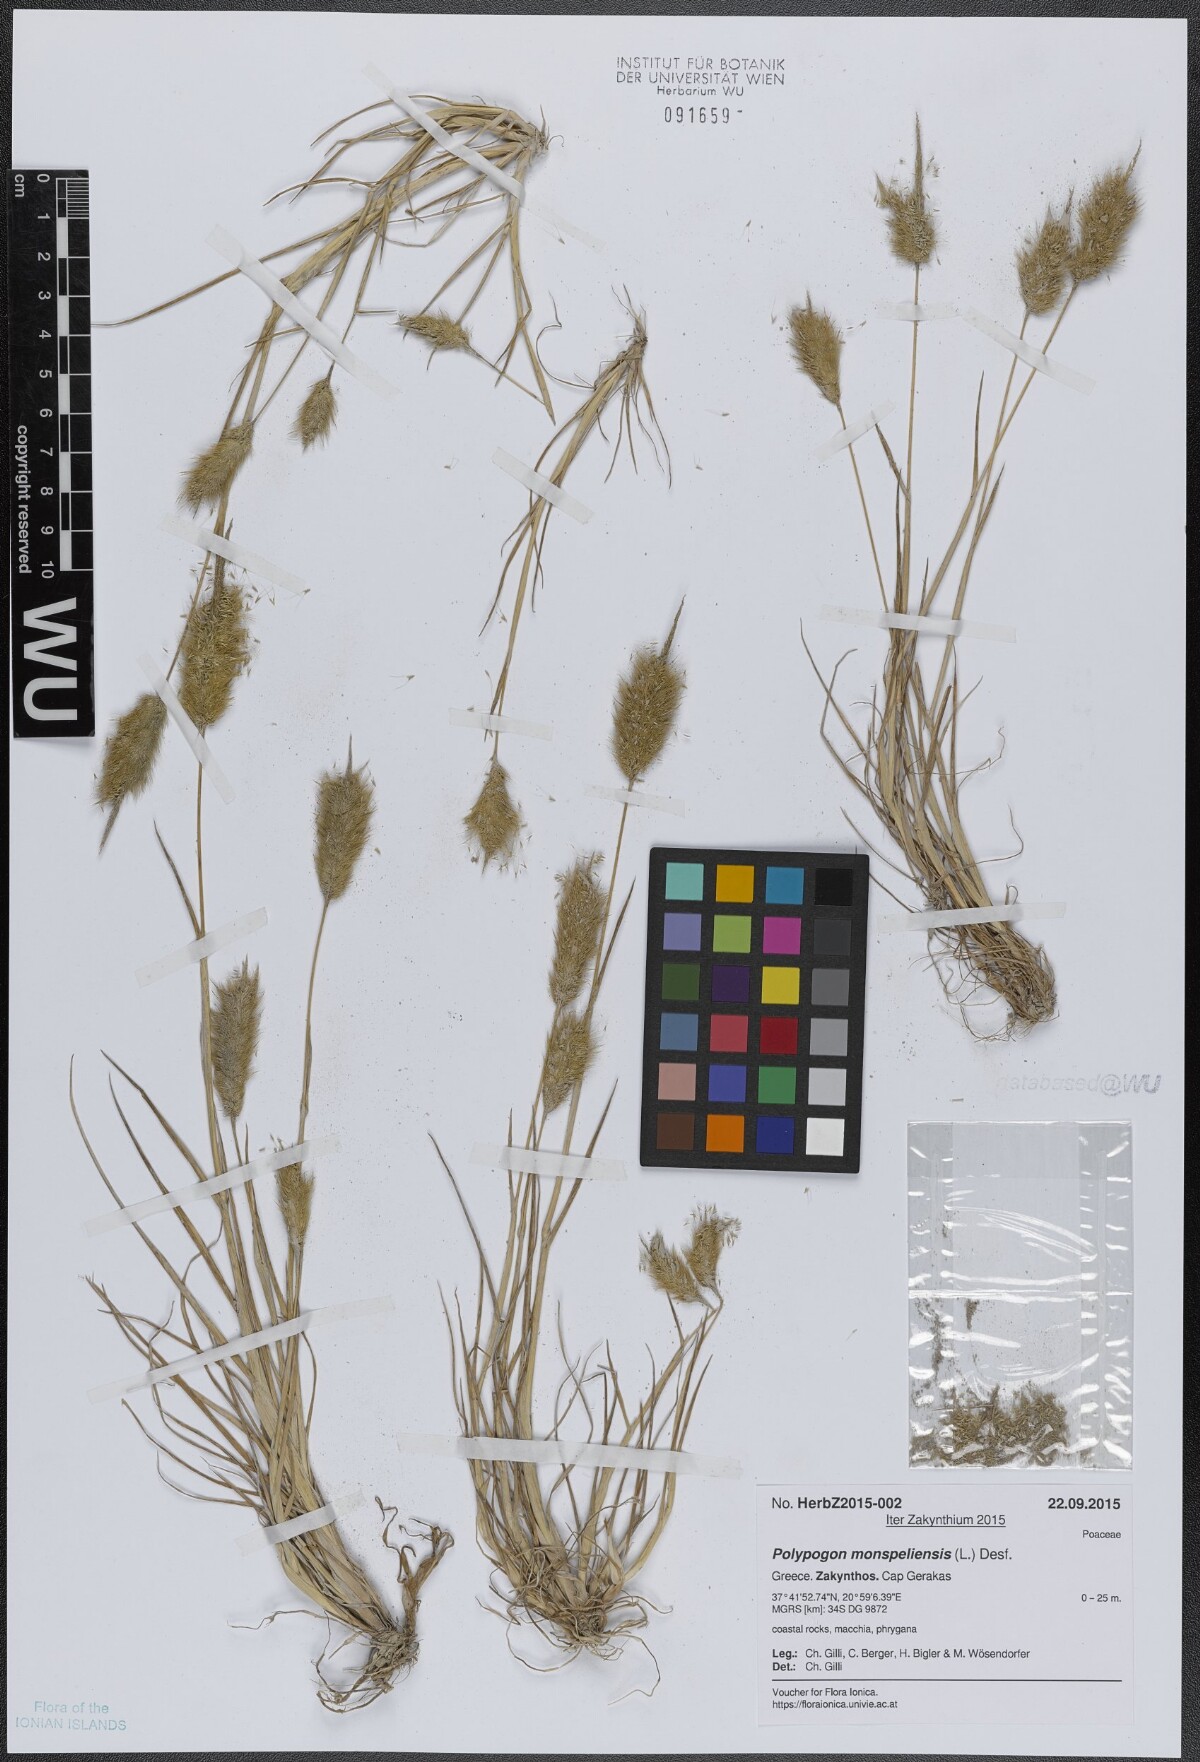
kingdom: Plantae
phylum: Tracheophyta
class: Liliopsida
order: Poales
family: Poaceae
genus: Polypogon
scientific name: Polypogon monspeliensis
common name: Annual rabbitsfoot grass
